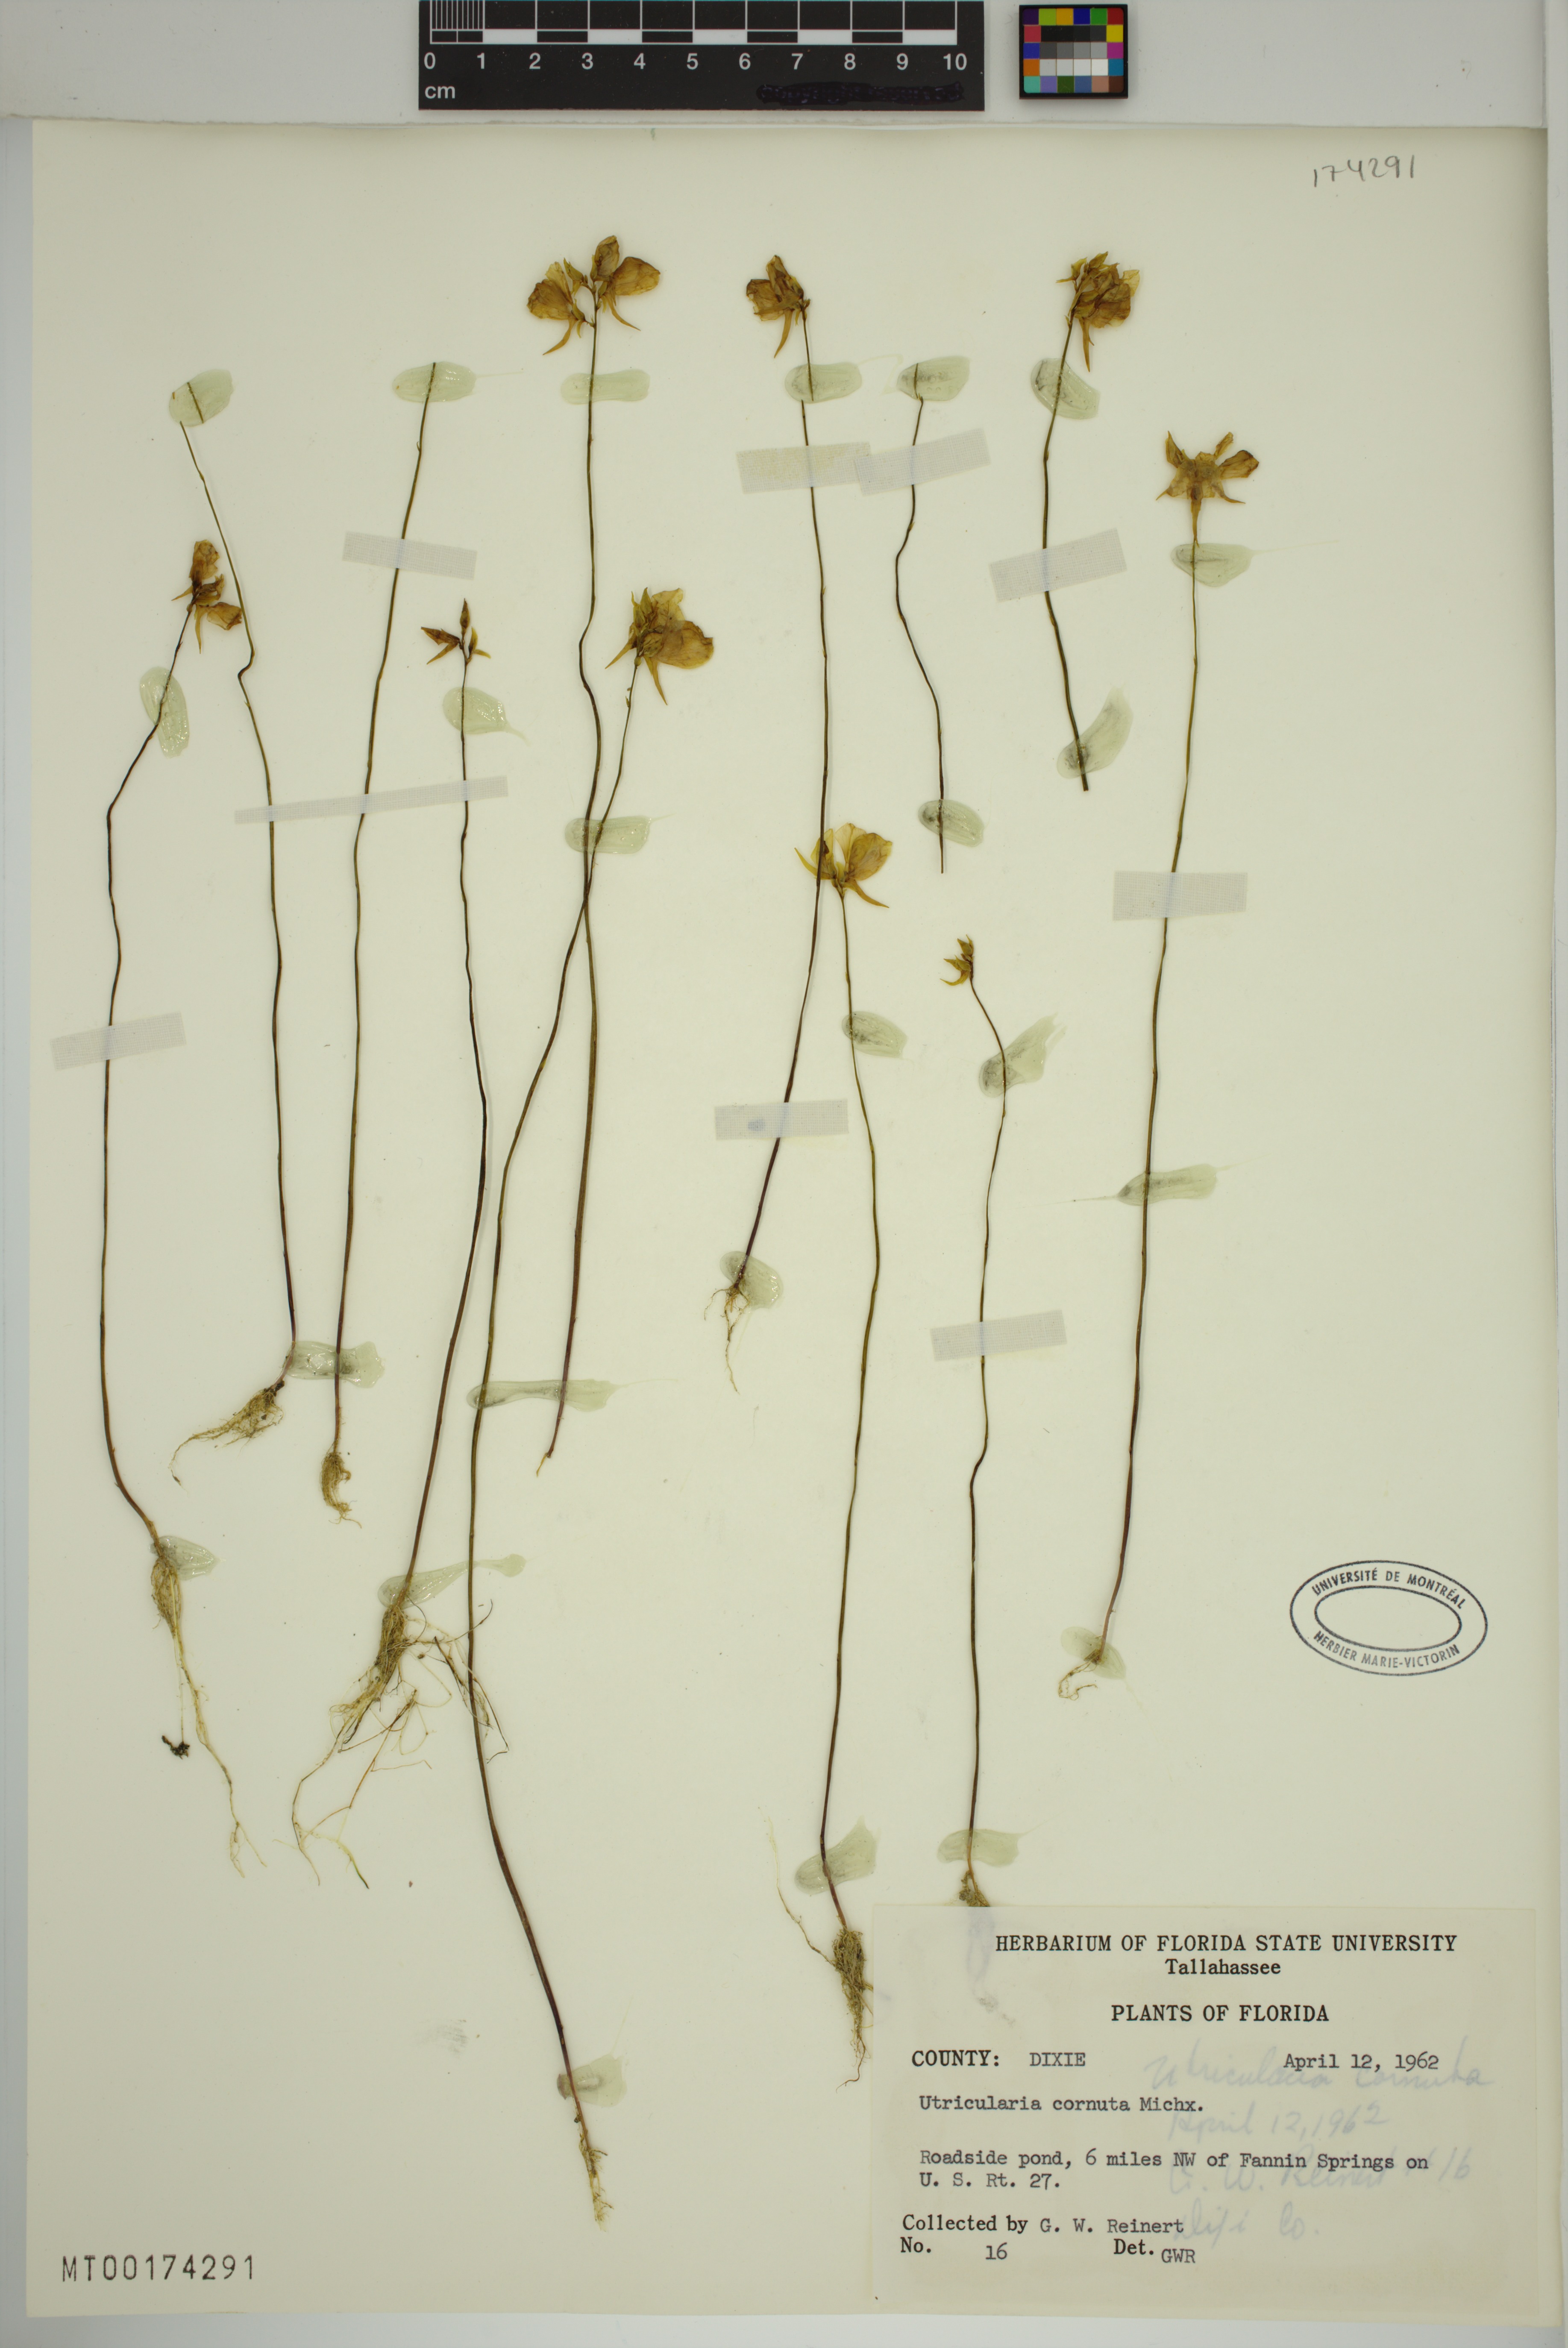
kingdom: Plantae
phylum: Tracheophyta
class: Magnoliopsida
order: Lamiales
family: Lentibulariaceae
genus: Utricularia
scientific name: Utricularia cornuta
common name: Horned bladderwort
